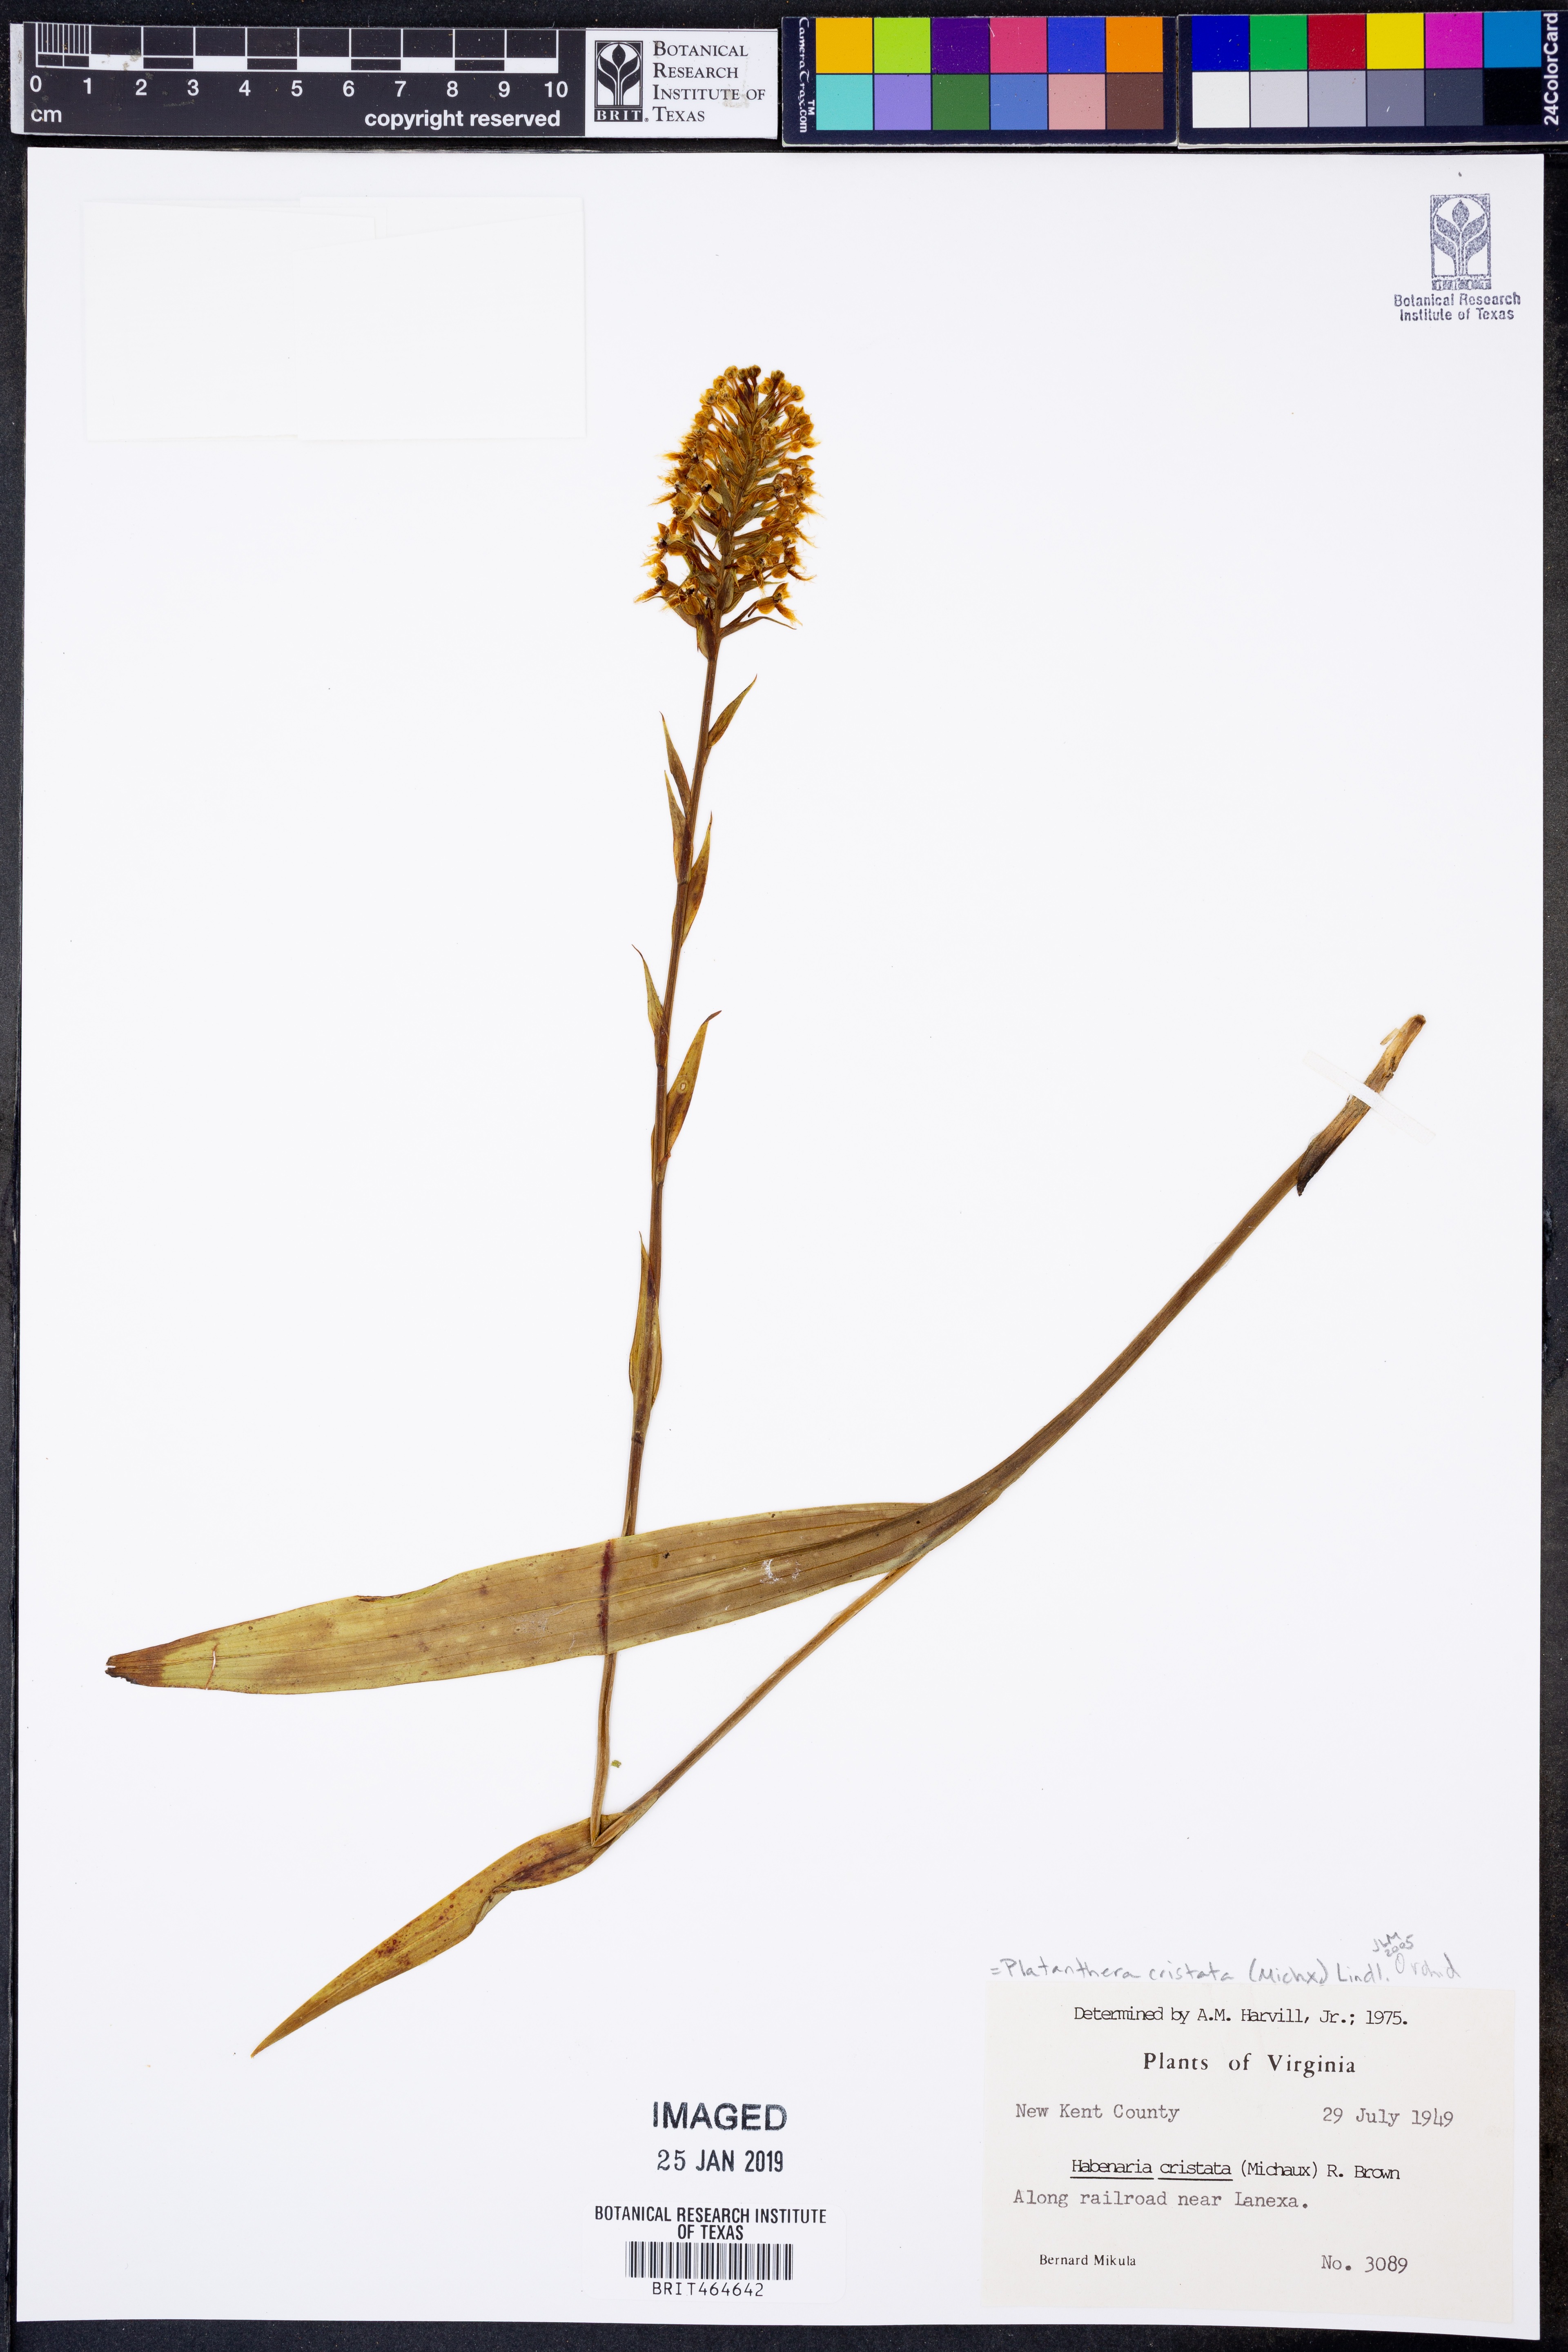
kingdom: Plantae
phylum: Tracheophyta
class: Liliopsida
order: Asparagales
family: Orchidaceae
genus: Platanthera
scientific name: Platanthera cristata
